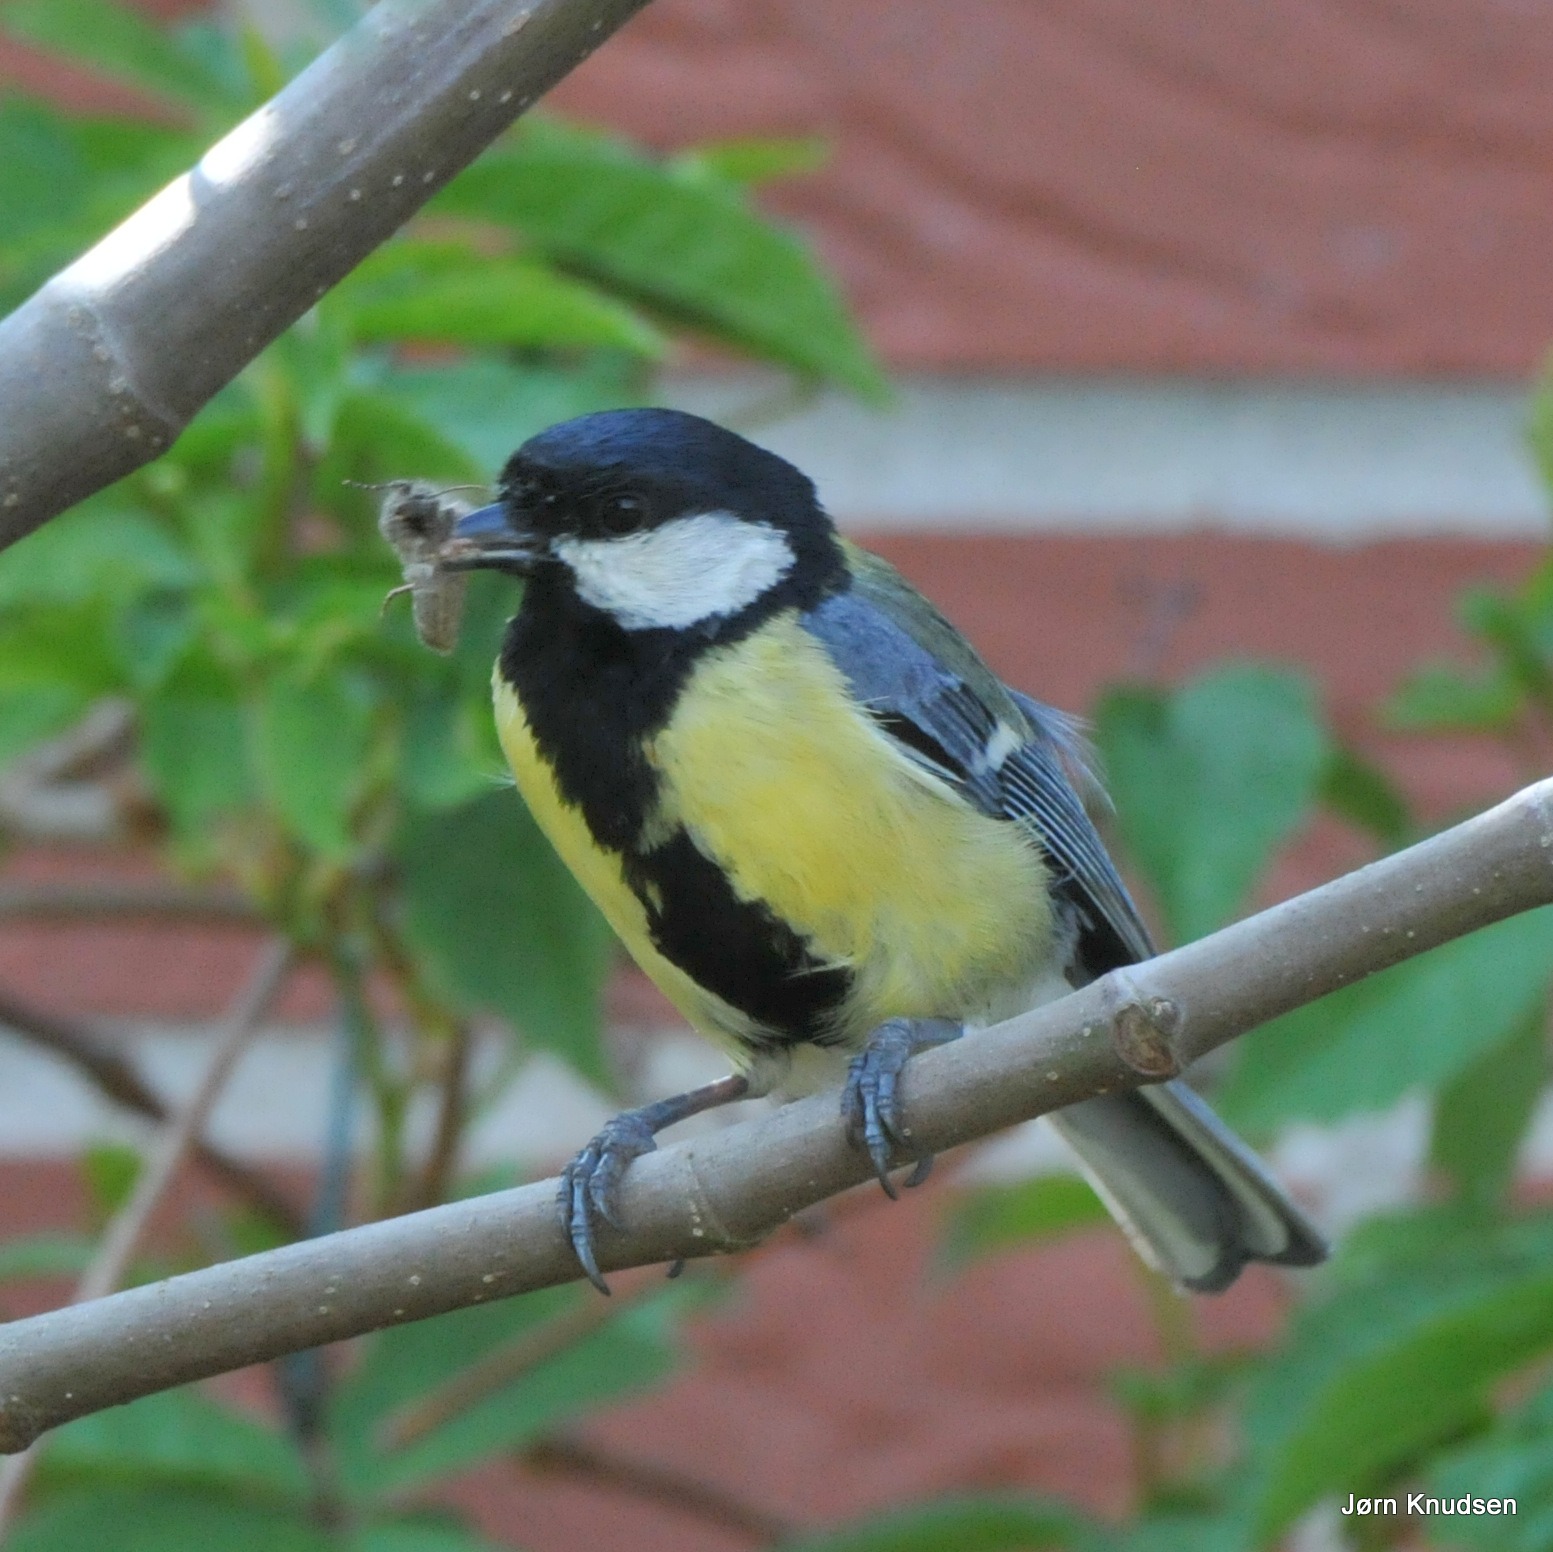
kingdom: Animalia
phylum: Chordata
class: Aves
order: Passeriformes
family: Paridae
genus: Parus
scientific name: Parus major
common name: Musvit
